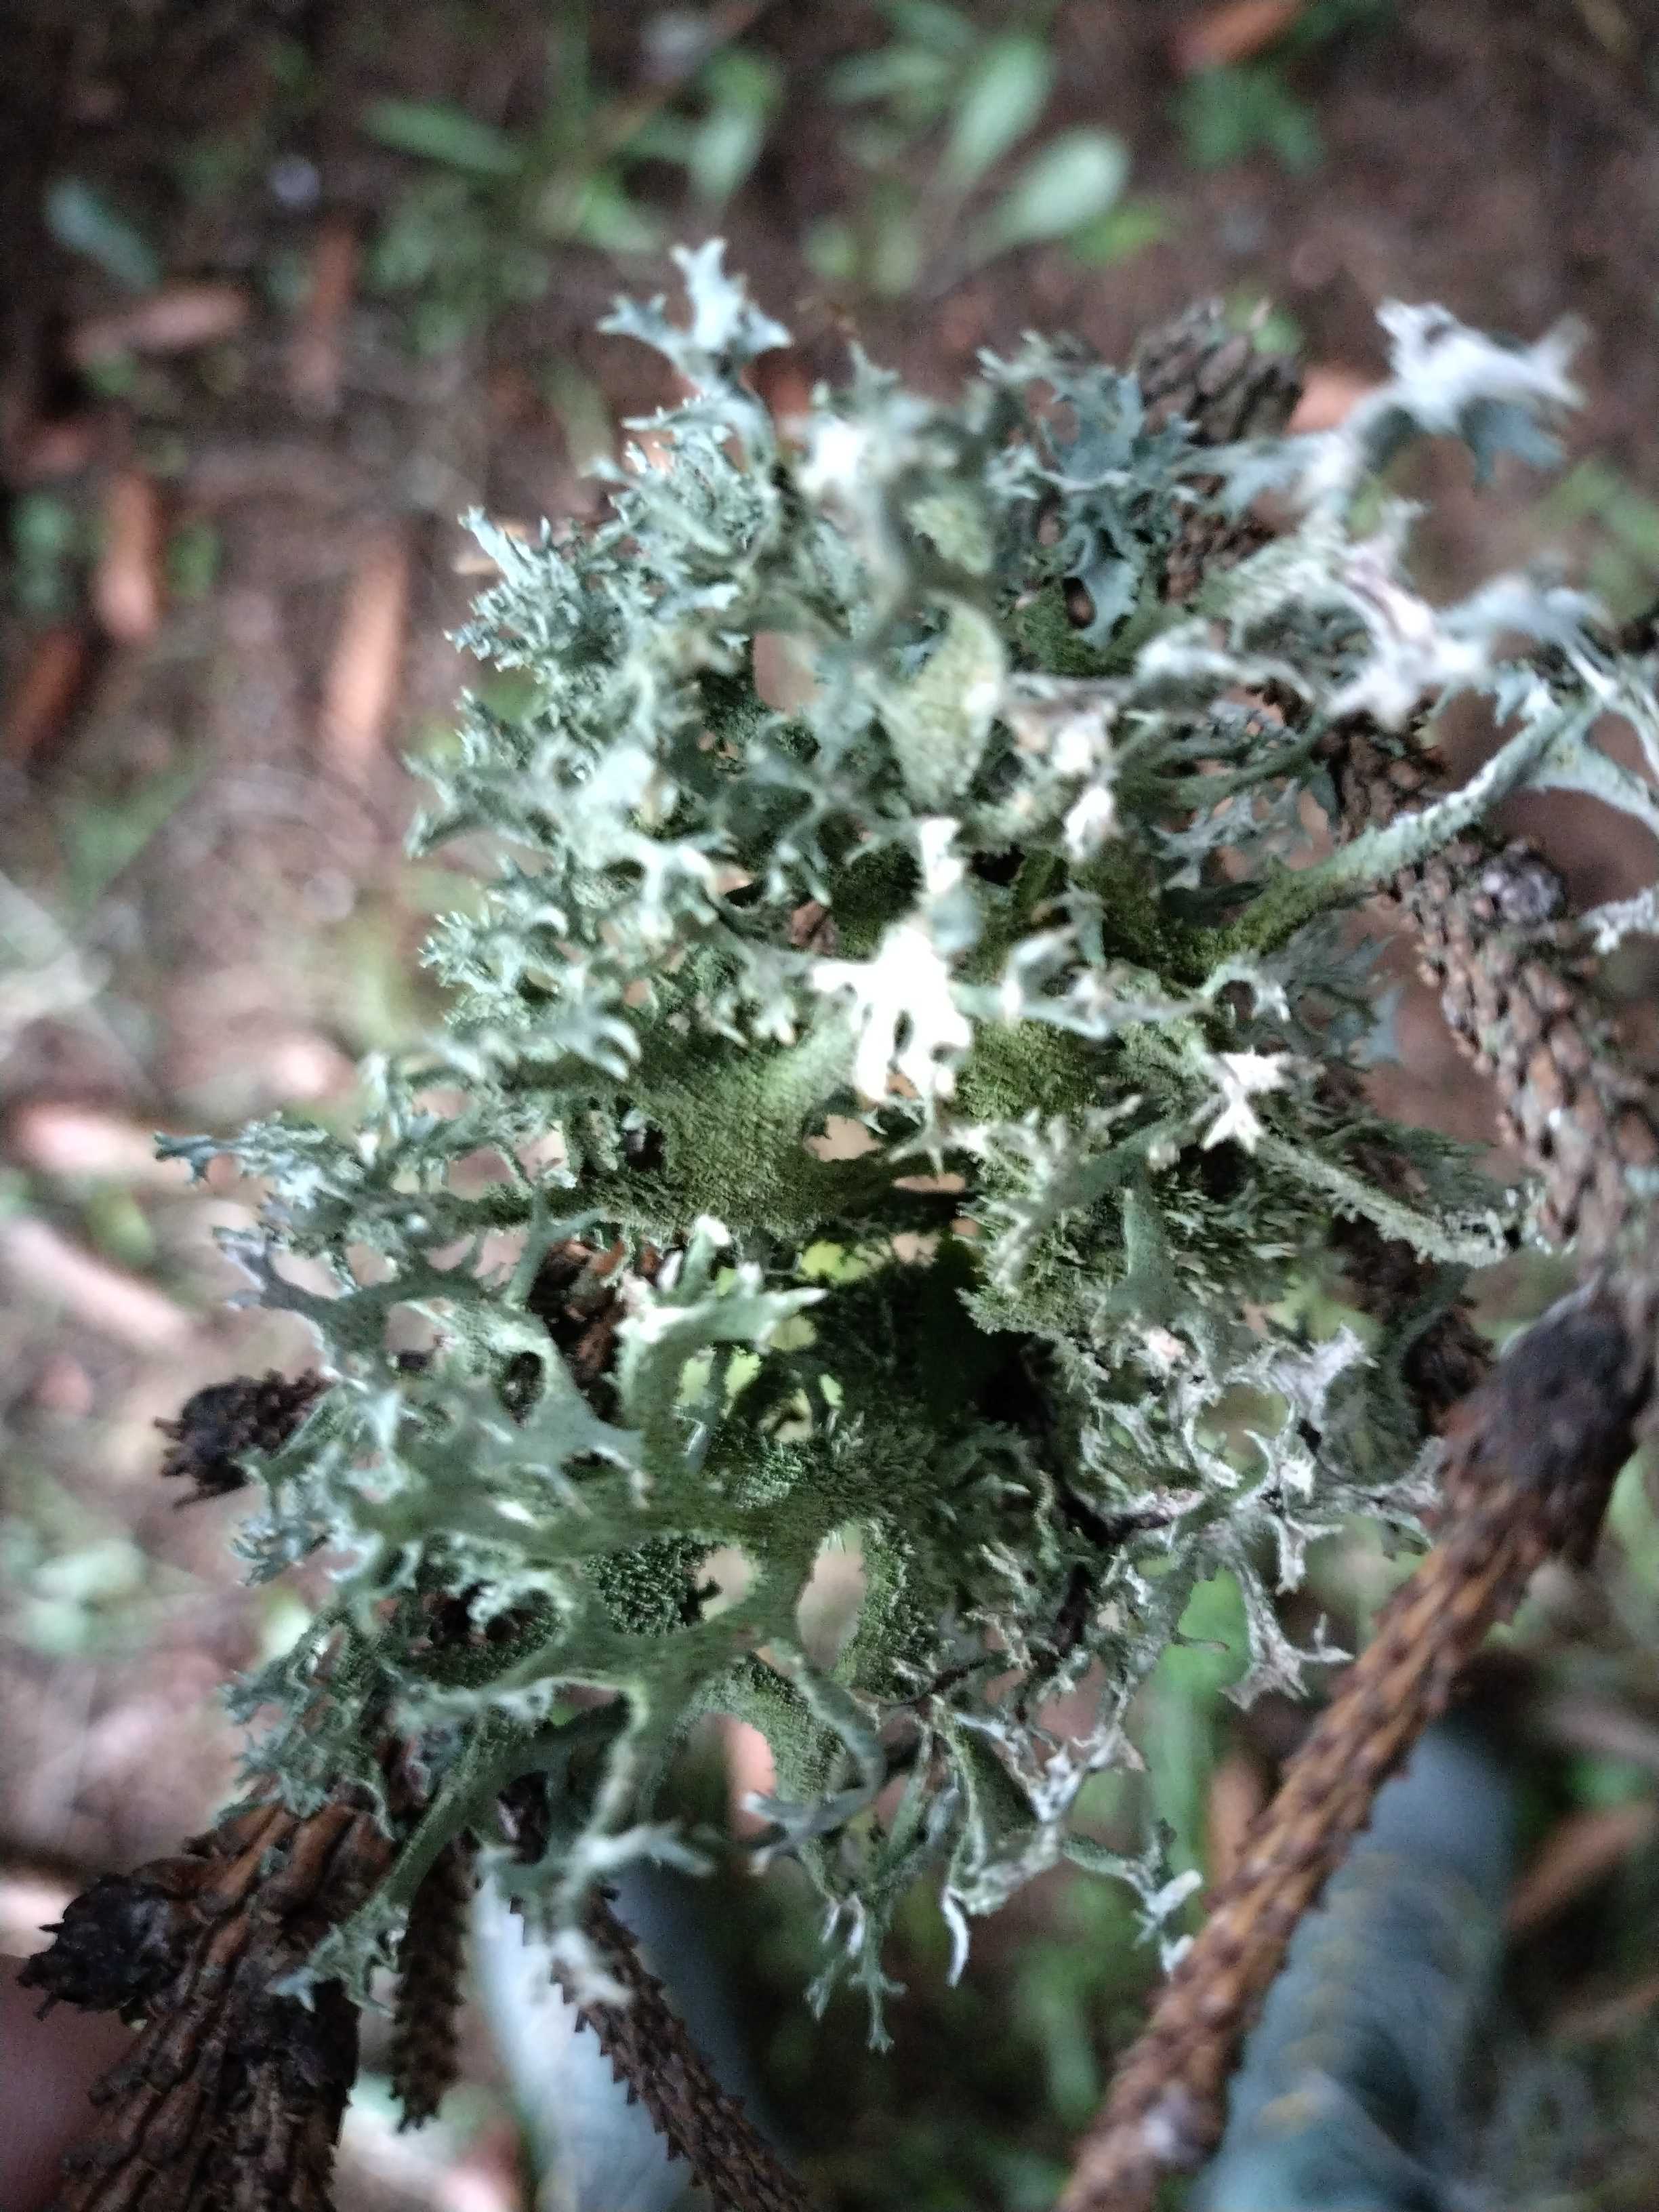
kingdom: Fungi
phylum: Ascomycota
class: Lecanoromycetes
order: Lecanorales
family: Parmeliaceae
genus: Pseudevernia
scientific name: Pseudevernia furfuracea
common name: grå fyrrelav
